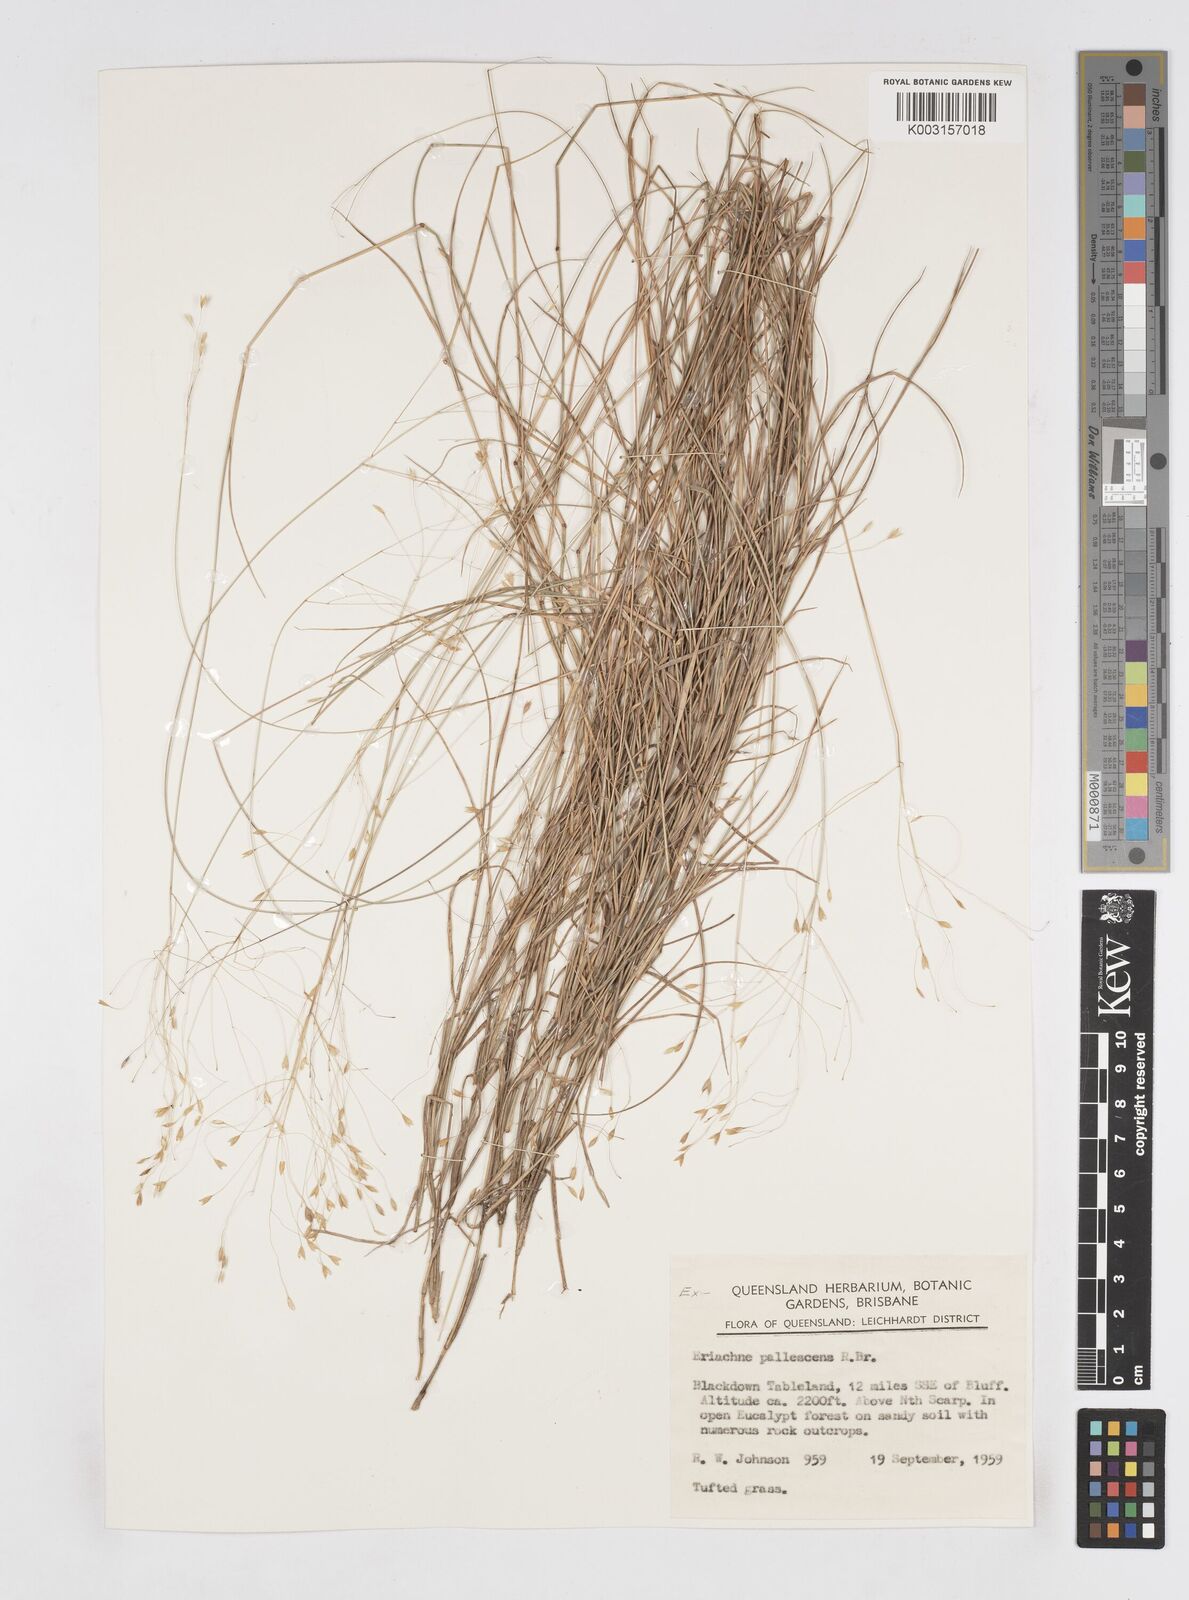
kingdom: Plantae
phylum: Tracheophyta
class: Liliopsida
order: Poales
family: Poaceae
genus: Eriachne
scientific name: Eriachne pallescens
